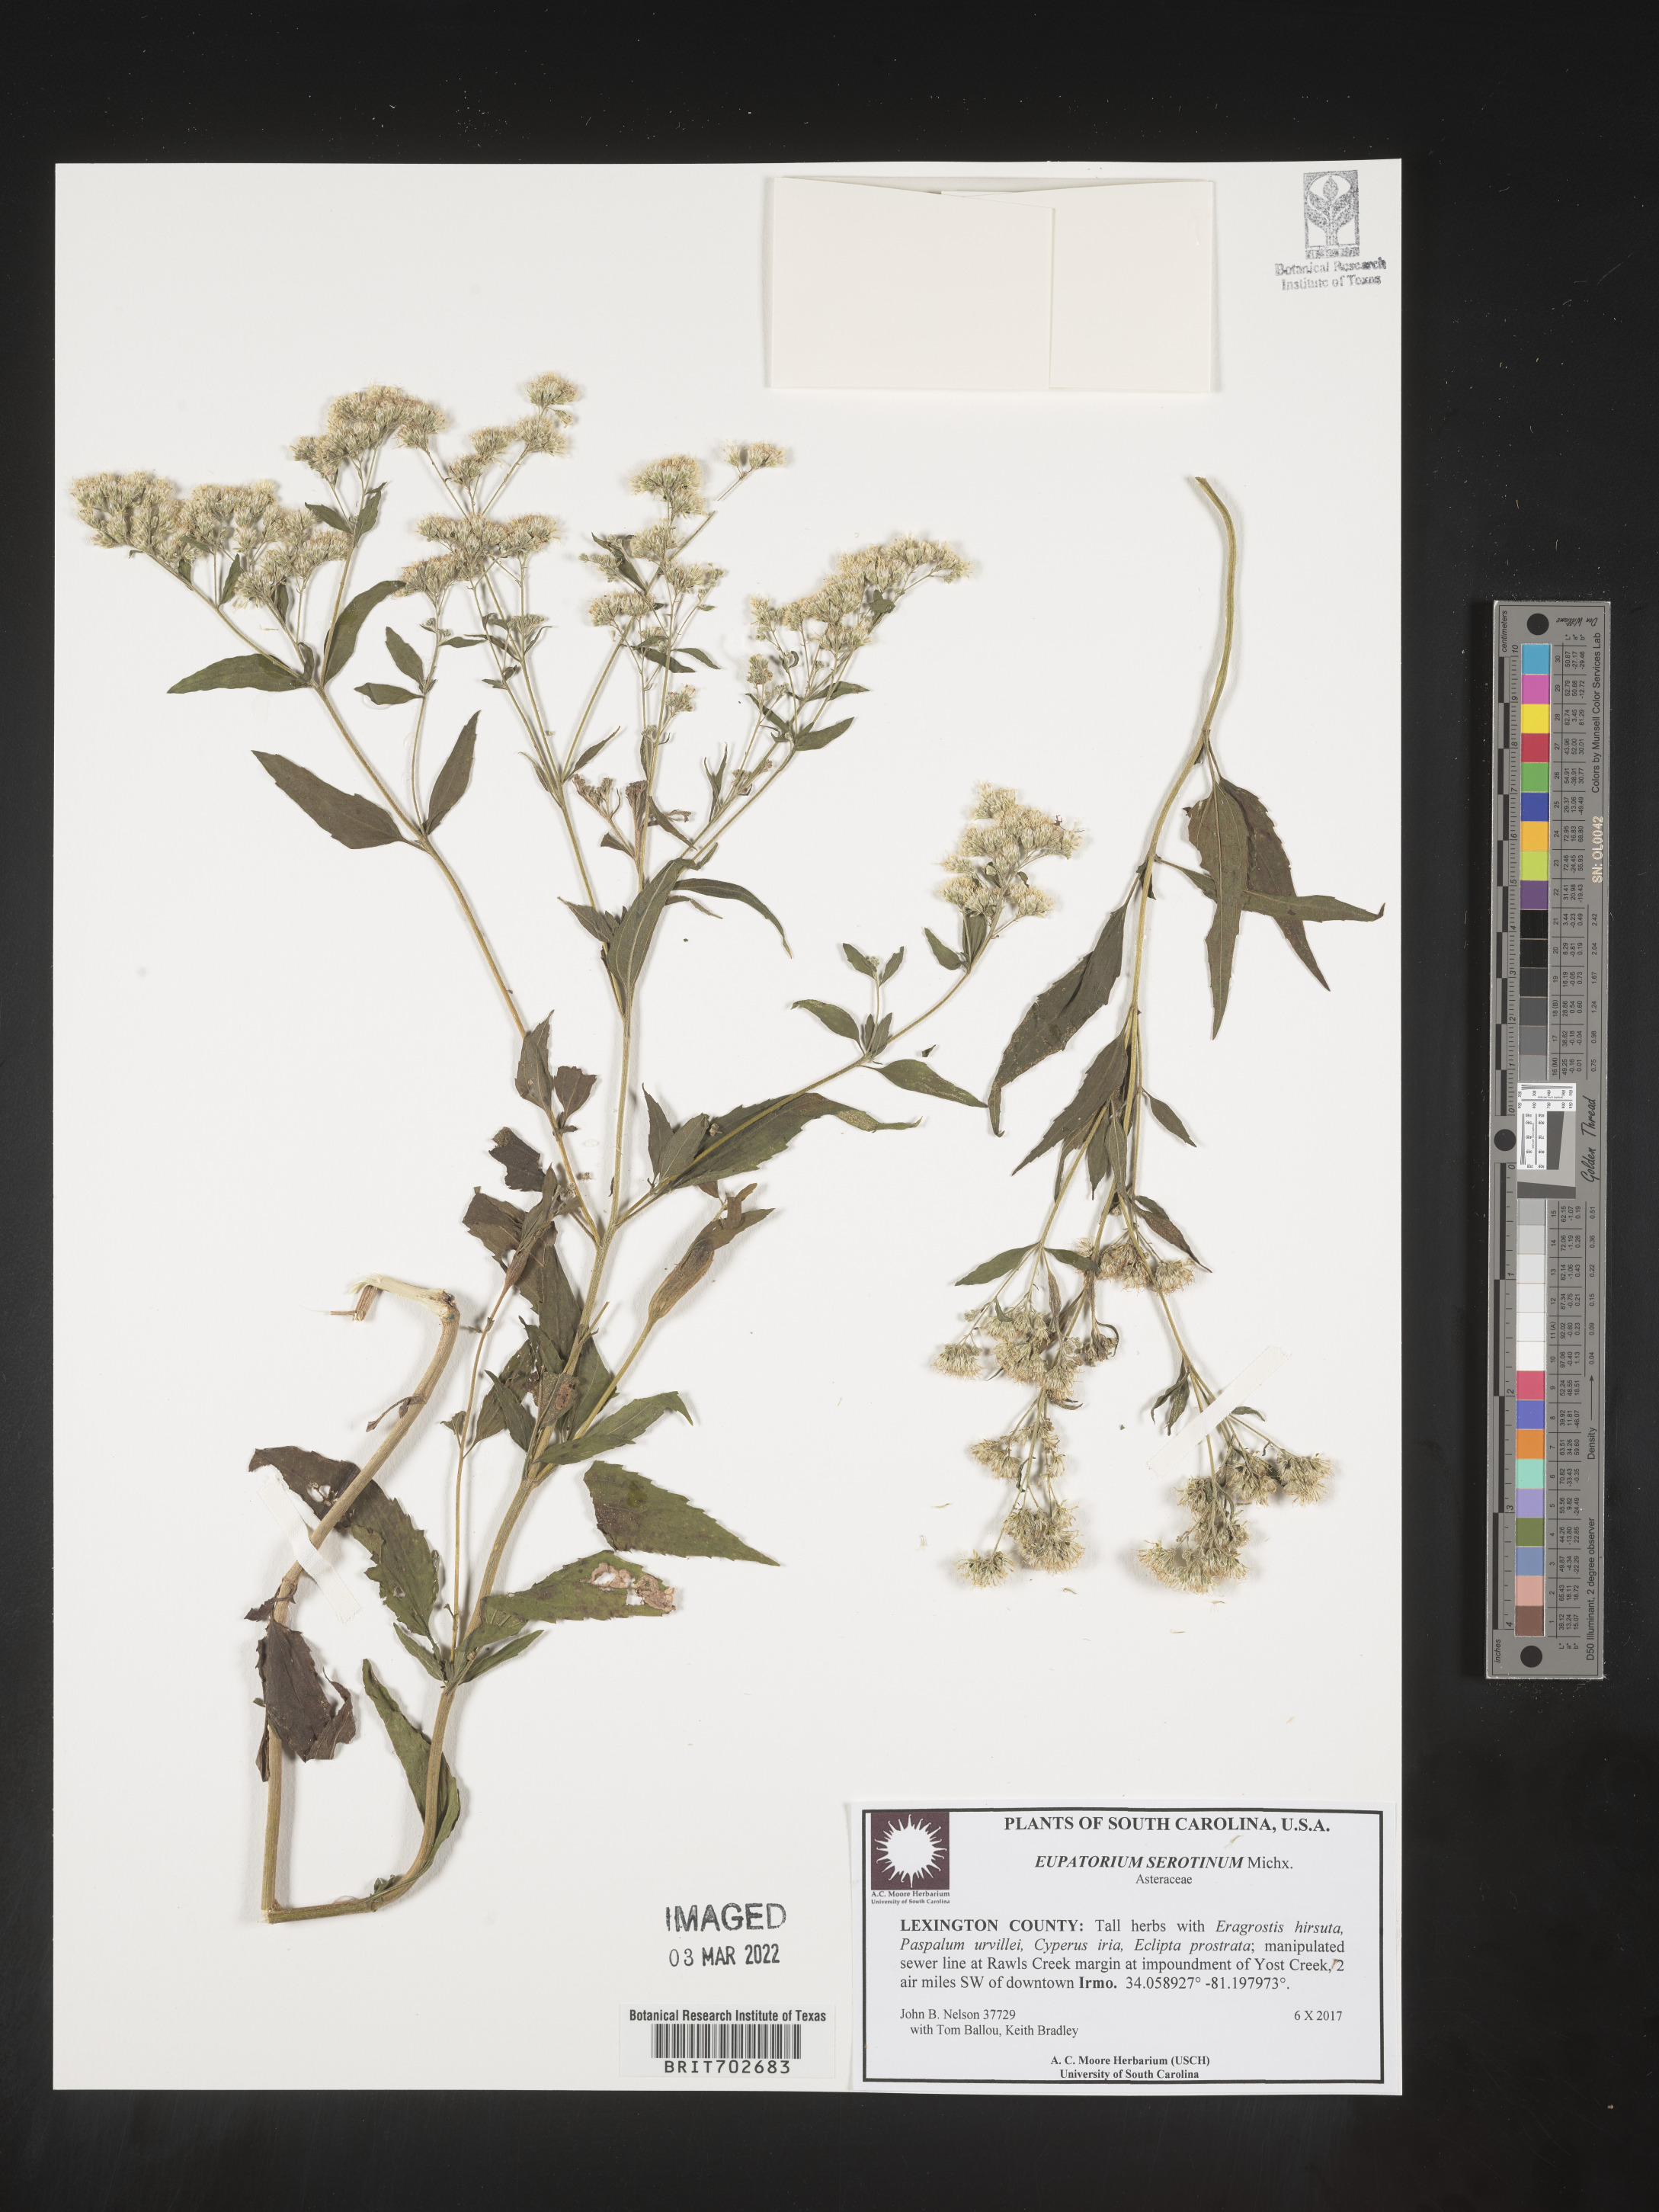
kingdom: Plantae
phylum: Tracheophyta
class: Magnoliopsida
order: Asterales
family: Asteraceae
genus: Eupatorium
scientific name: Eupatorium serotinum
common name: Late boneset
